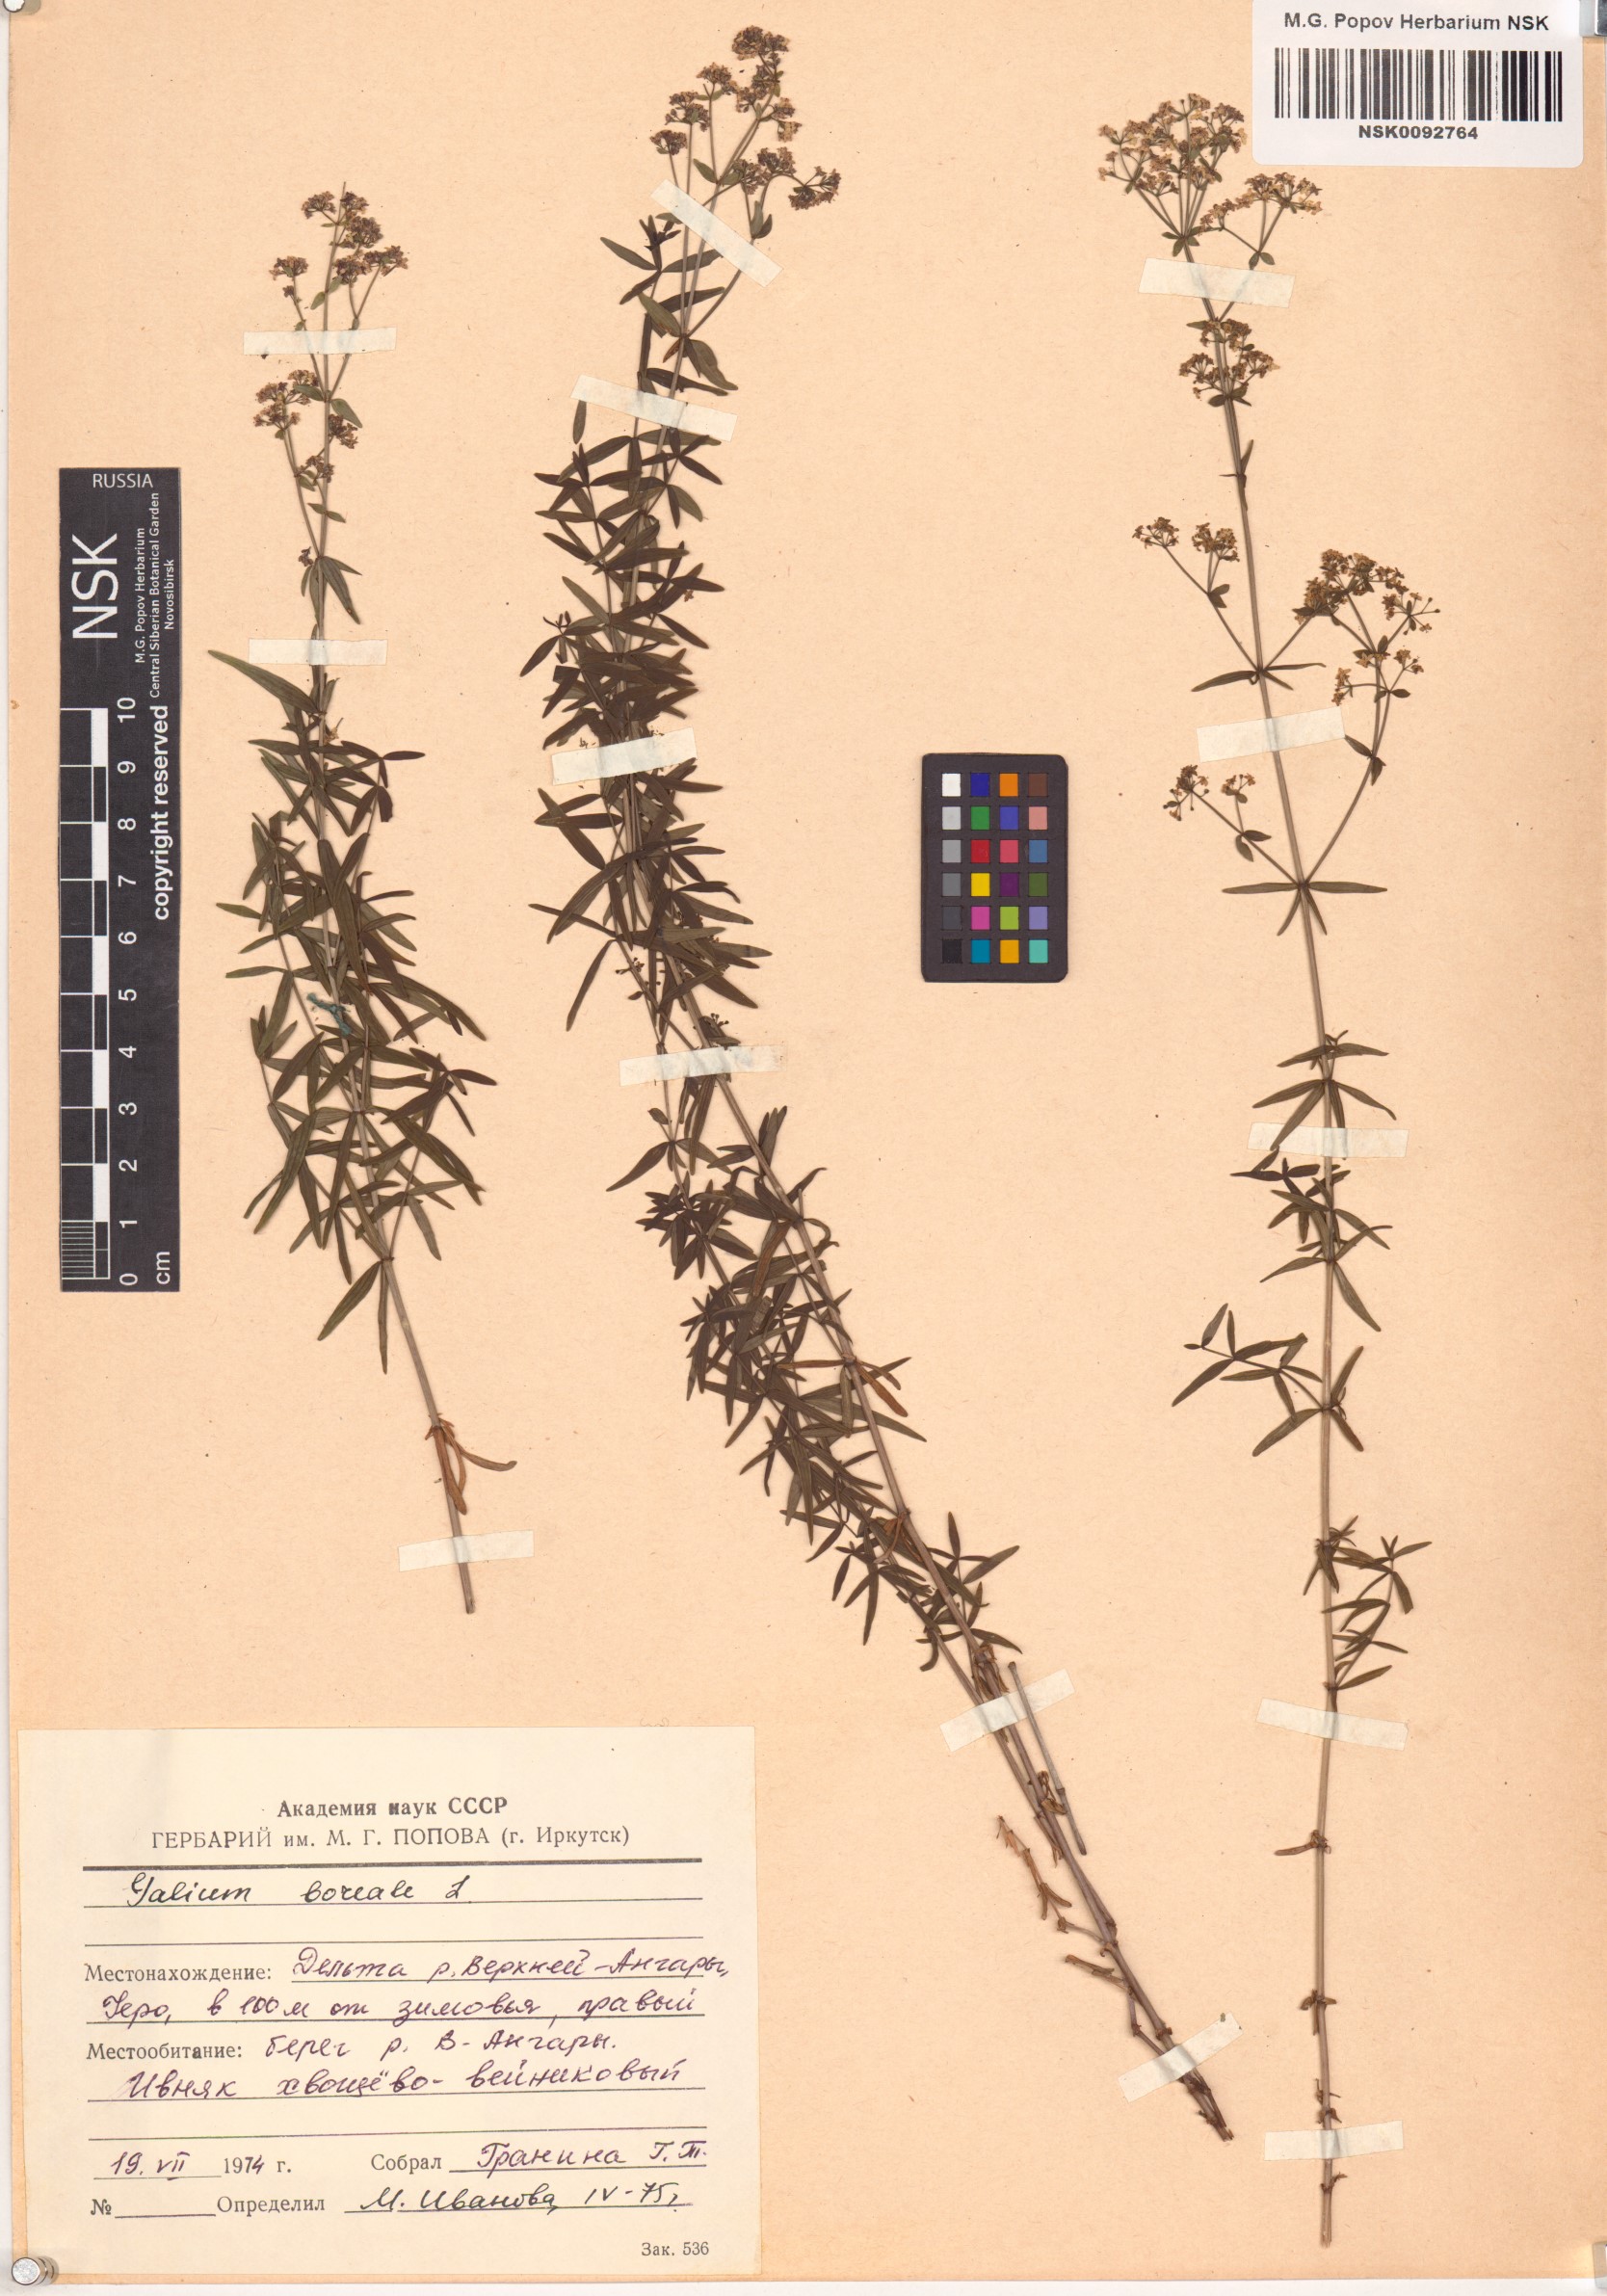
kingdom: Plantae
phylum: Tracheophyta
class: Magnoliopsida
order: Gentianales
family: Rubiaceae
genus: Galium
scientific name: Galium boreale
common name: Northern bedstraw
